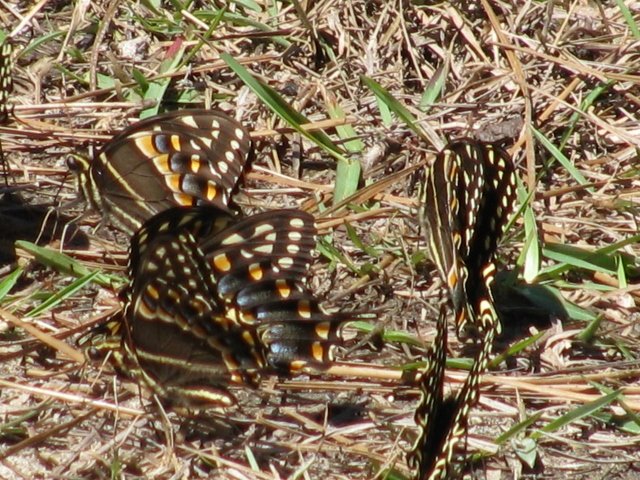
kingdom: Animalia
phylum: Arthropoda
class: Insecta
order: Lepidoptera
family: Papilionidae
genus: Pterourus
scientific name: Pterourus palamedes
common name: Palamedes Swallowtail
